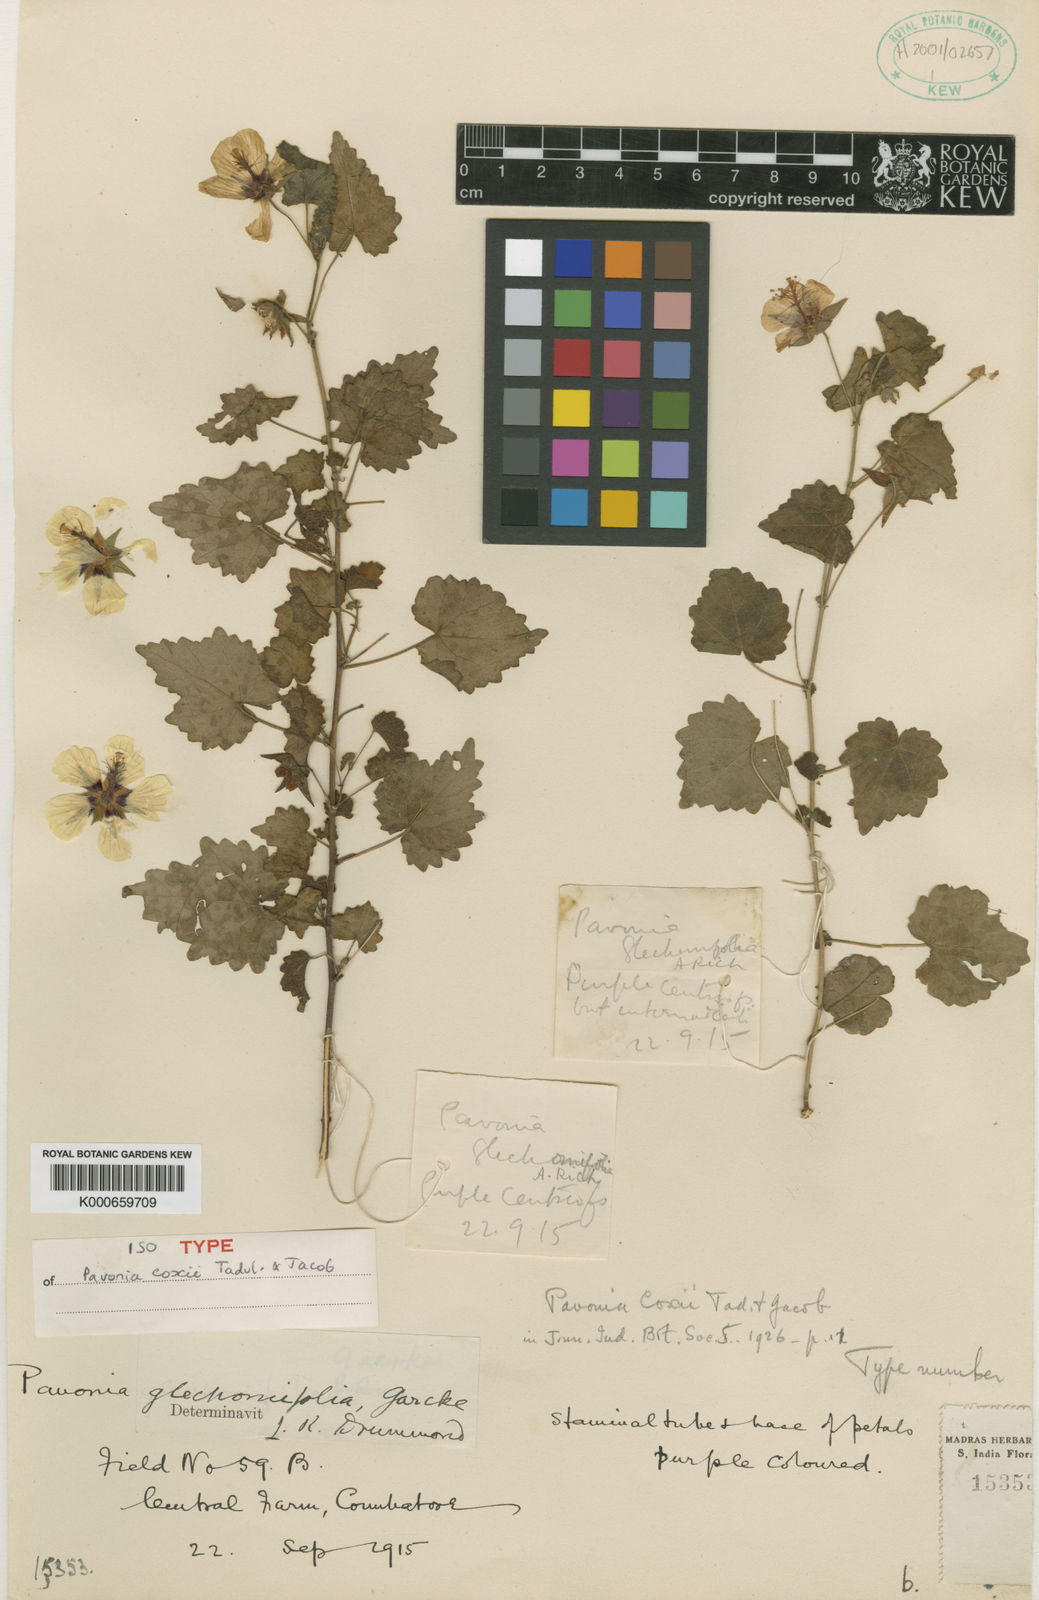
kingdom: Plantae
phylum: Tracheophyta
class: Magnoliopsida
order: Malvales
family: Malvaceae
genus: Pavonia
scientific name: Pavonia flavoferruginea
